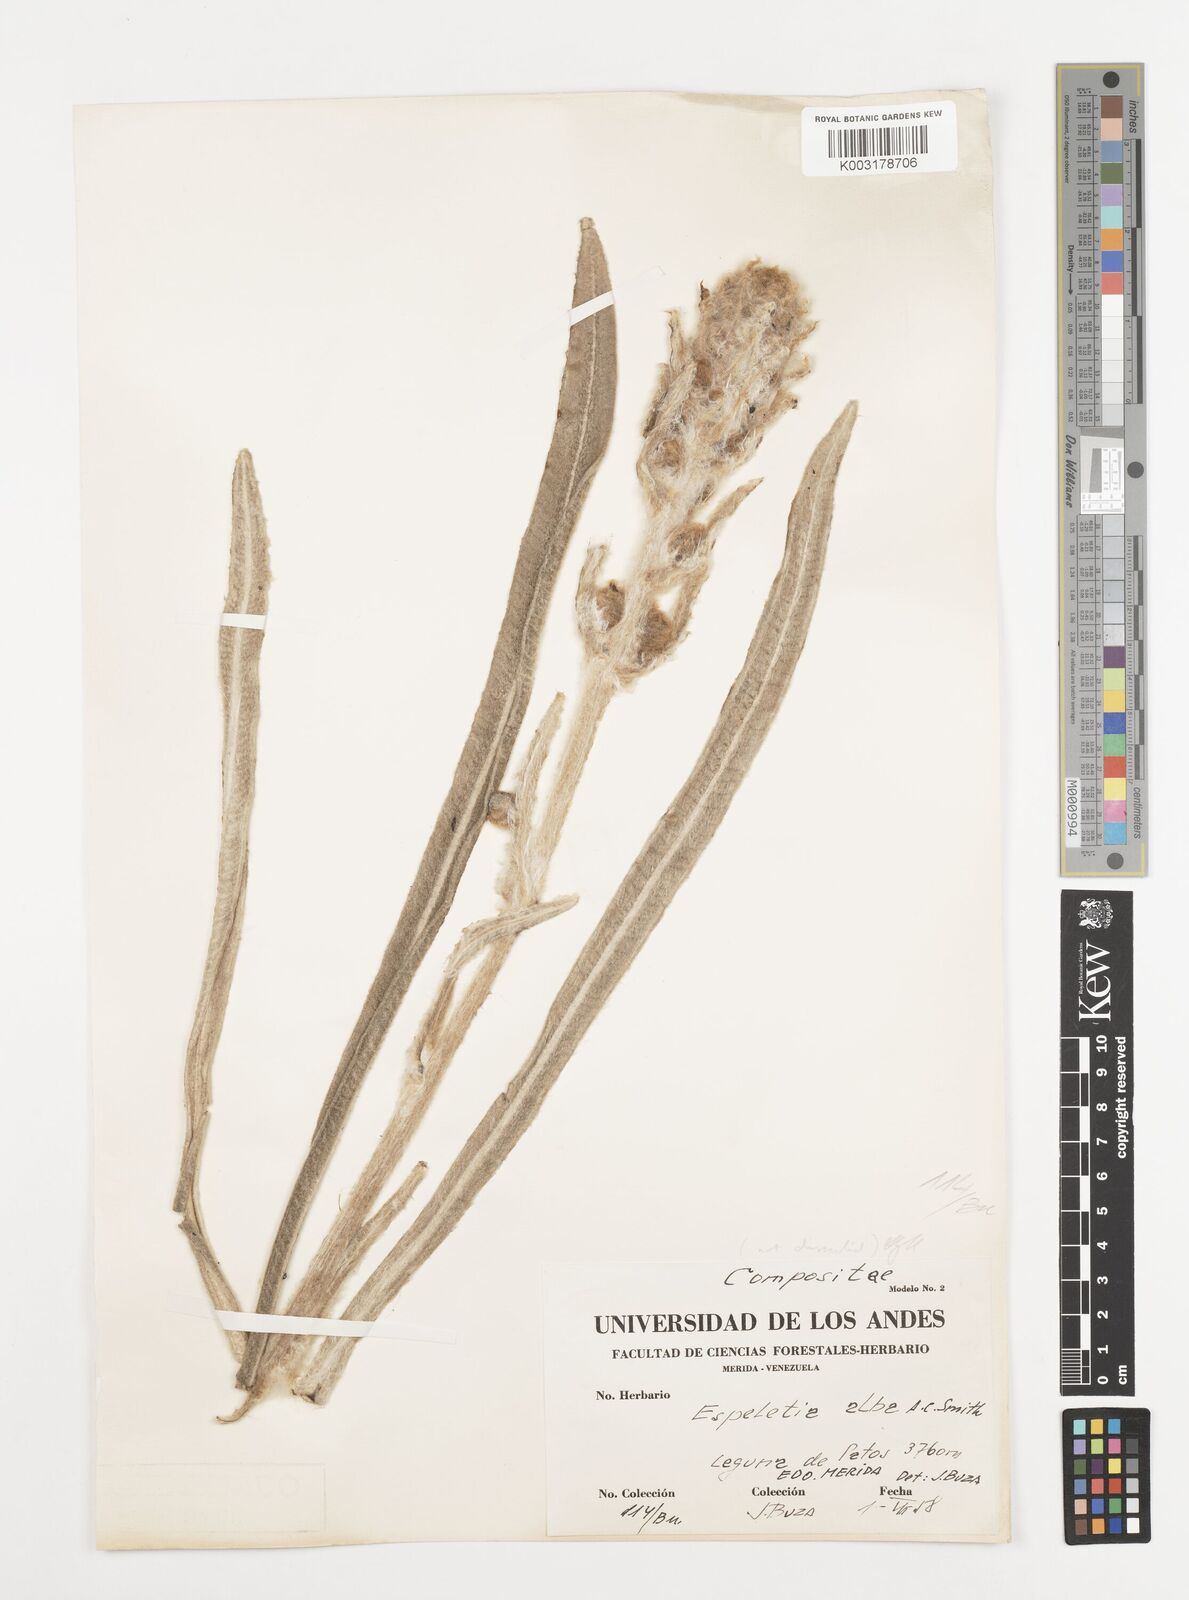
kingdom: Plantae
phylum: Tracheophyta
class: Magnoliopsida
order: Asterales
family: Asteraceae
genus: Espeletia
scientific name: Espeletia spicata
